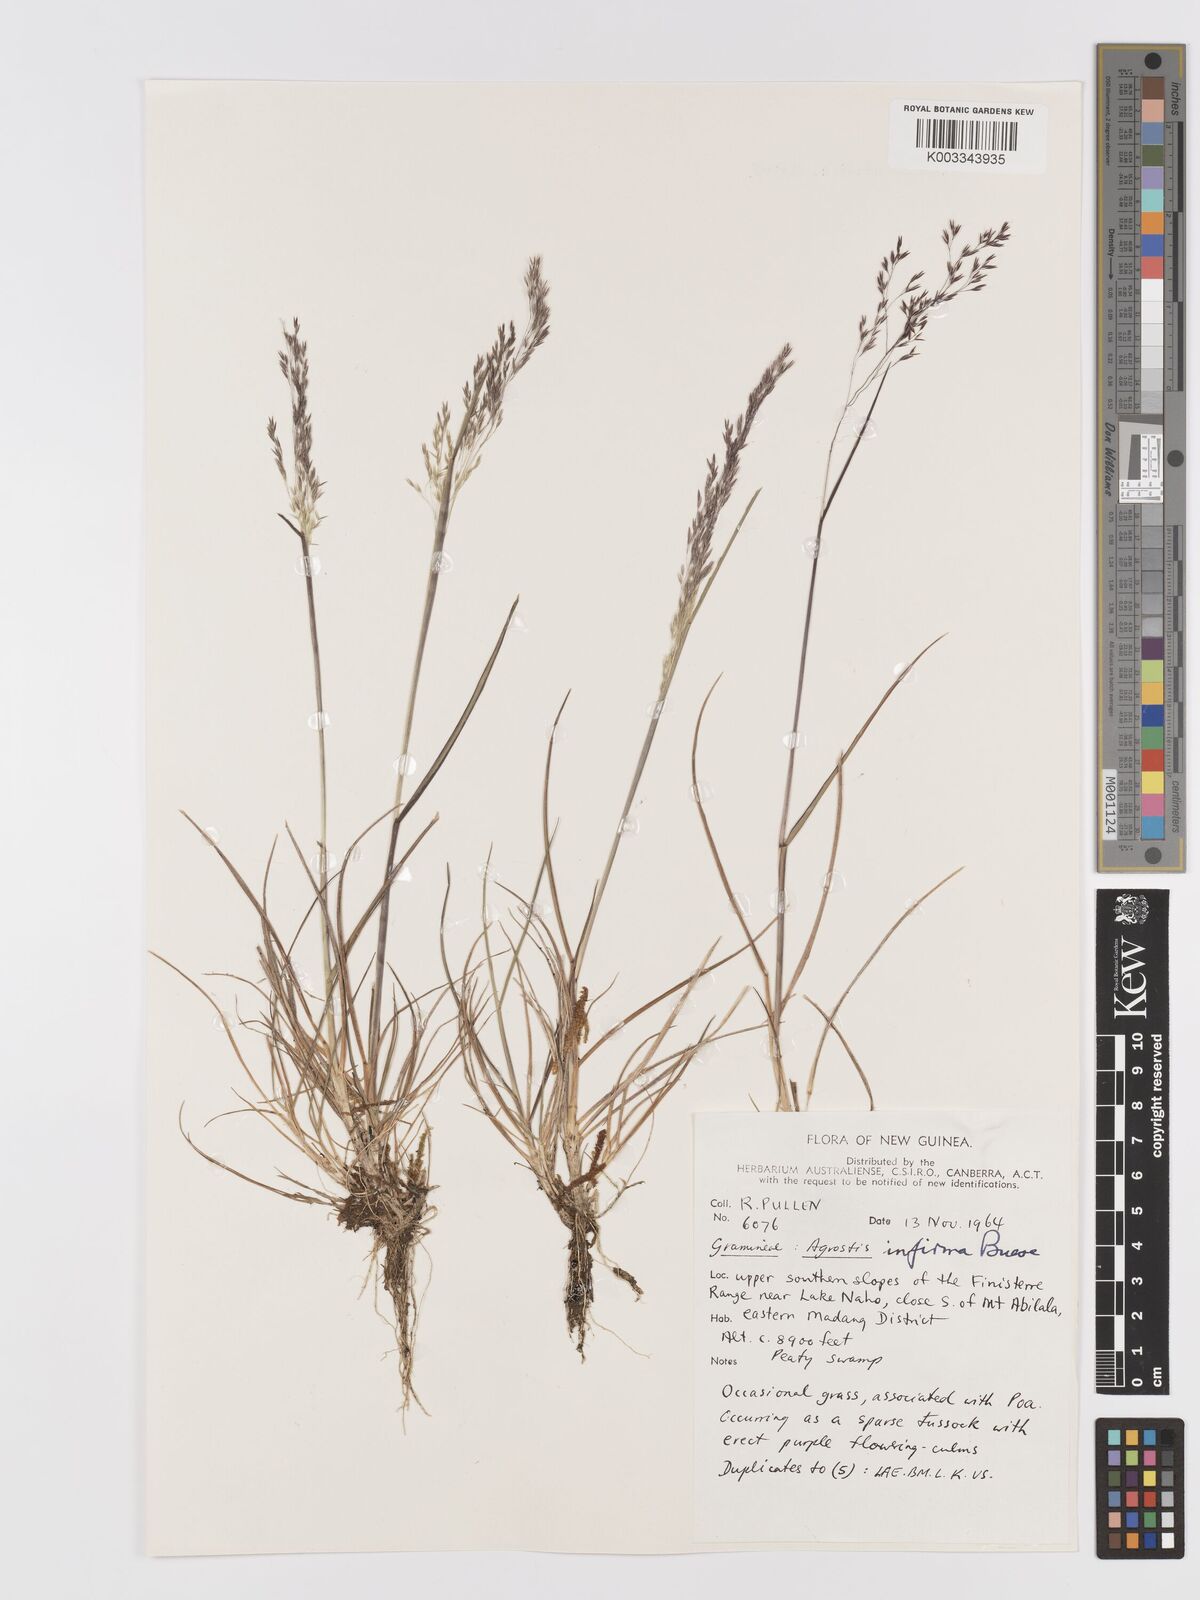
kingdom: Plantae
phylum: Tracheophyta
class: Liliopsida
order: Poales
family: Poaceae
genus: Agrostis
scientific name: Agrostis infirma
